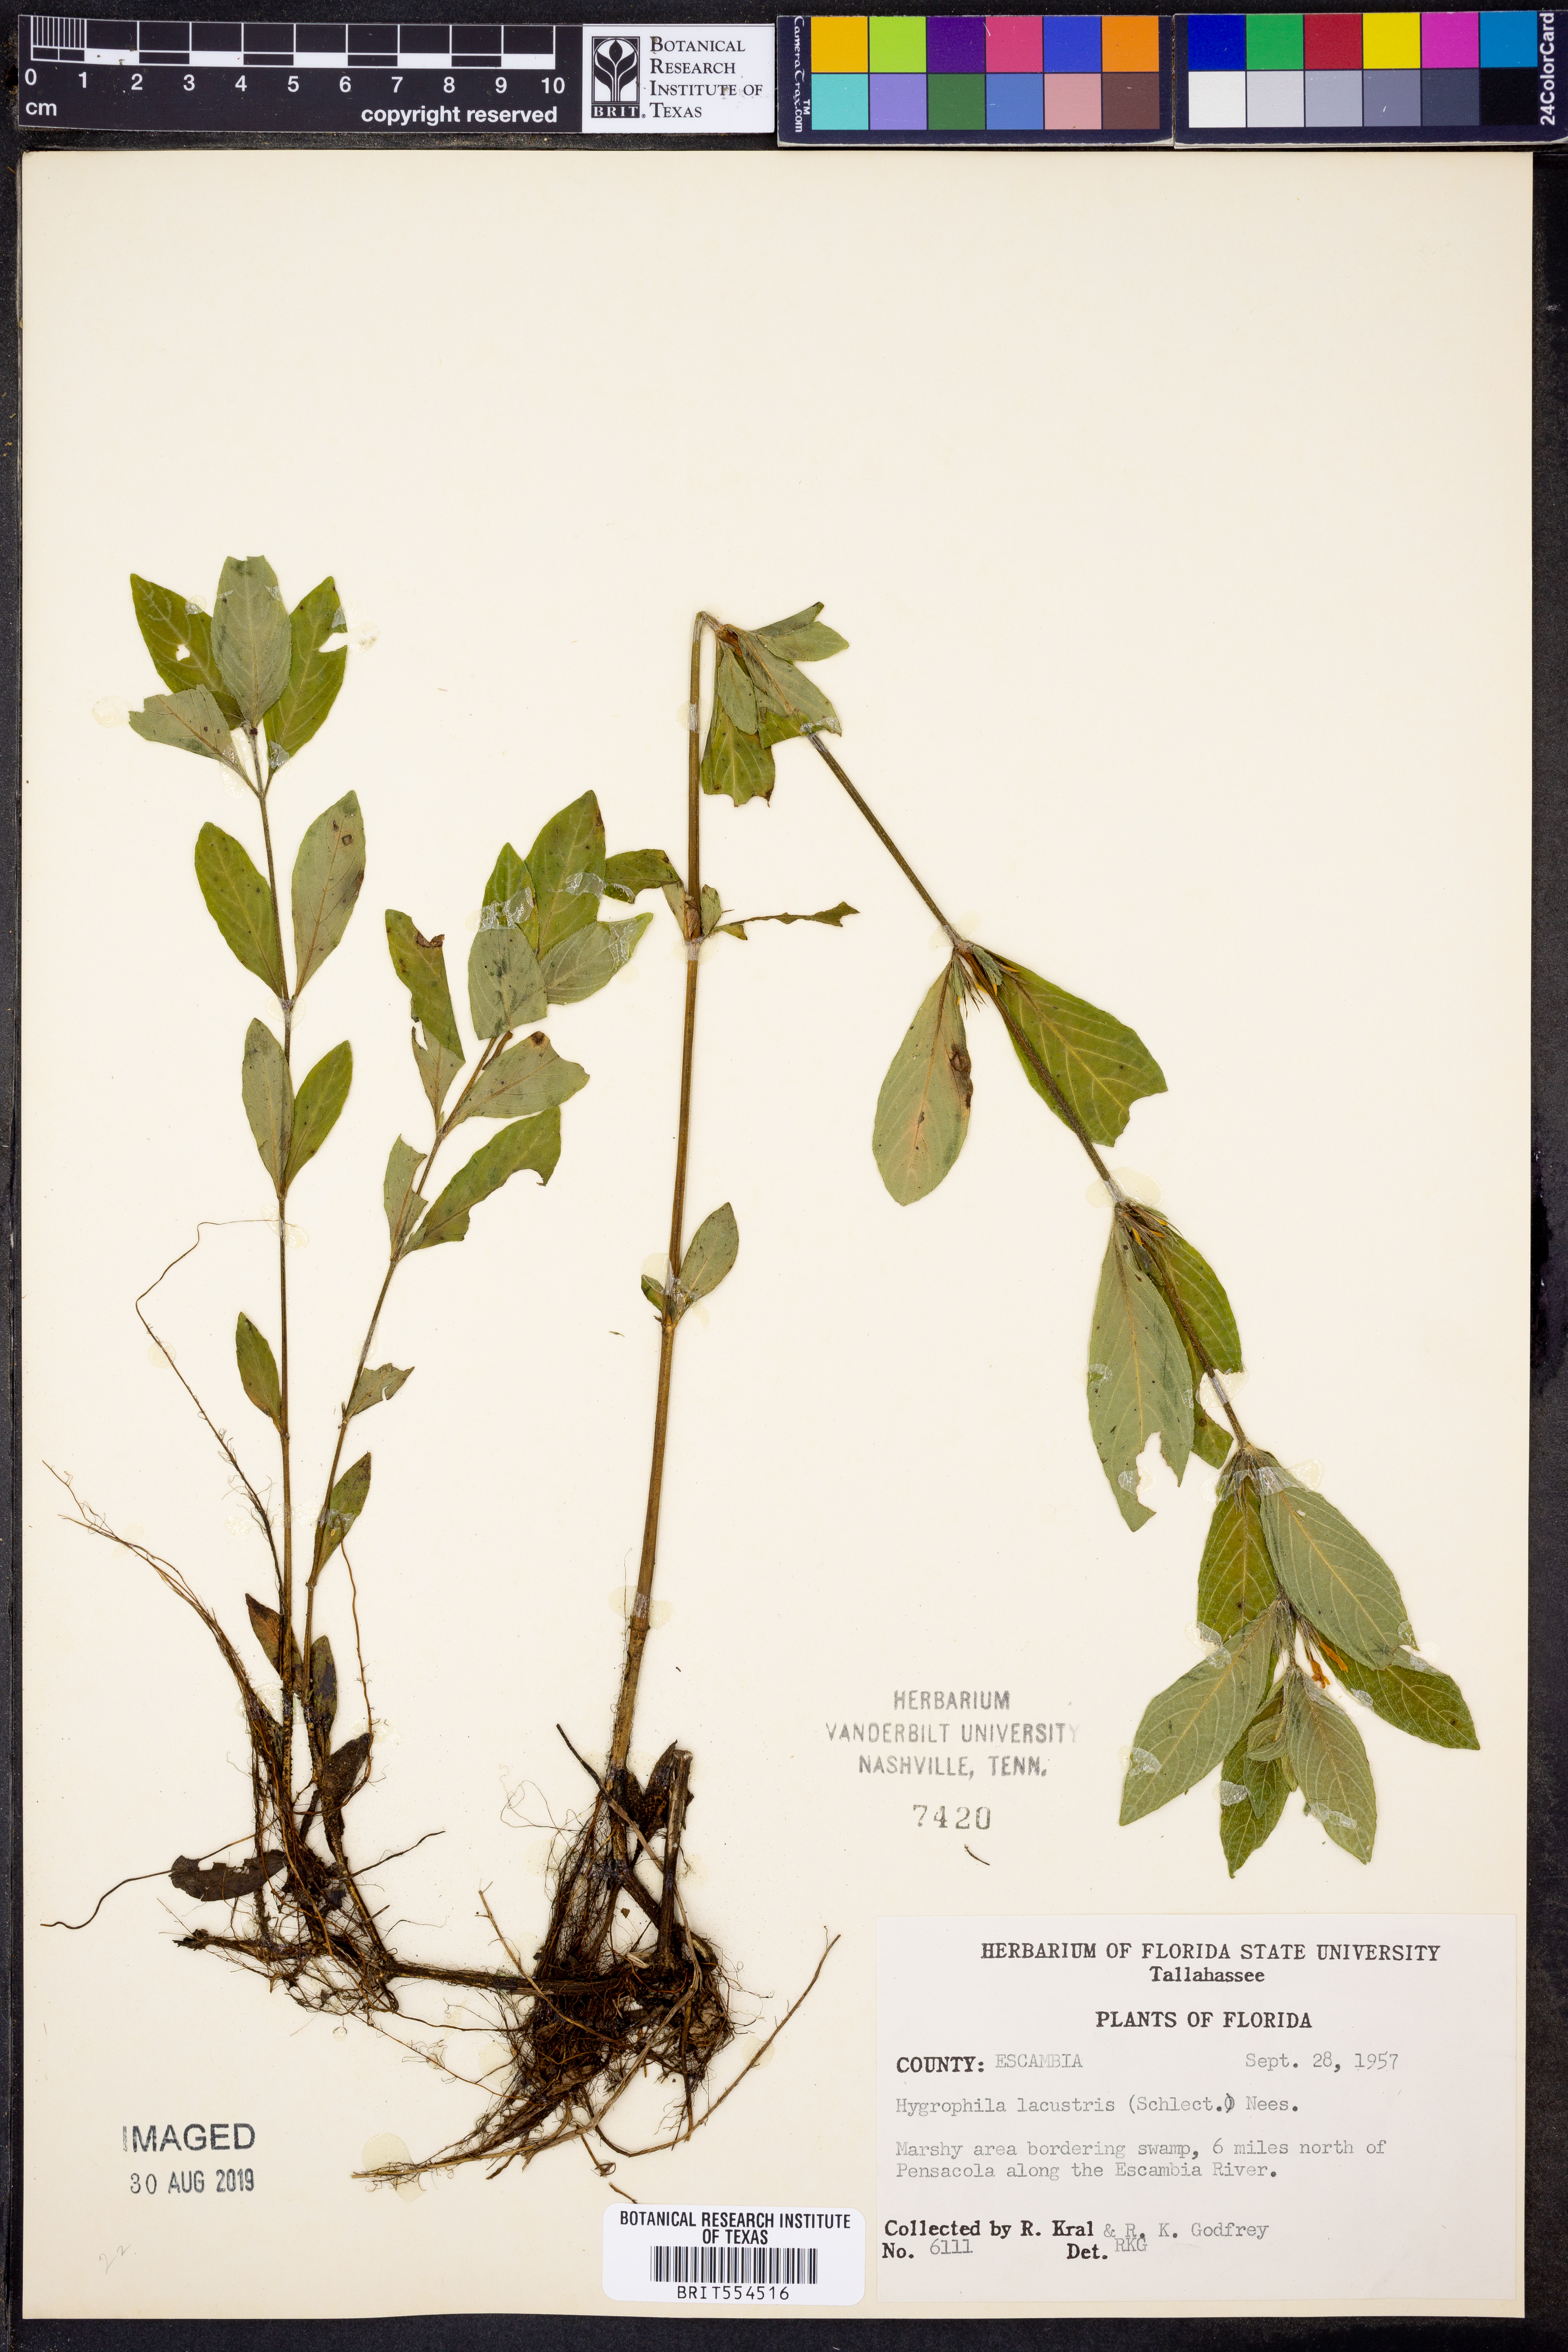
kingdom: Plantae
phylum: Tracheophyta
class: Magnoliopsida
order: Lamiales
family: Acanthaceae
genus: Hygrophila
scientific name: Hygrophila costata
